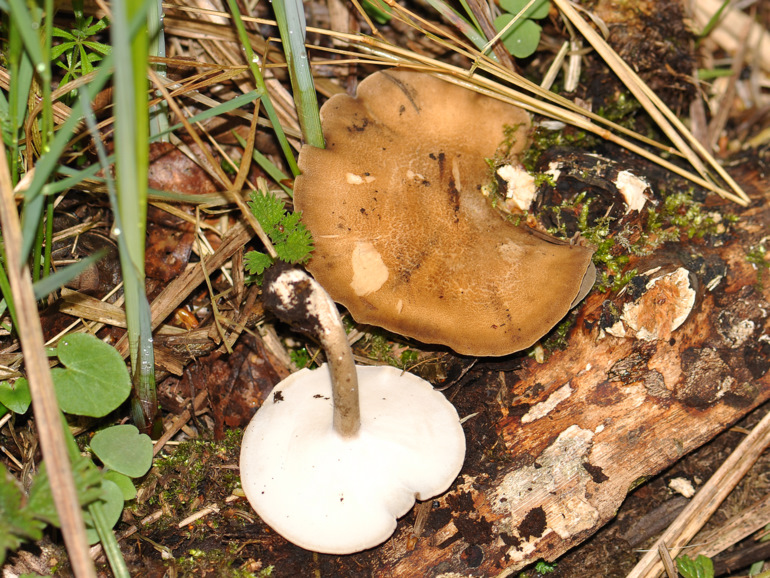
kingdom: Fungi
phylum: Basidiomycota
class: Agaricomycetes
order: Polyporales
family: Polyporaceae
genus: Lentinus
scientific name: Lentinus substrictus
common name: forårs-stilkporesvamp
